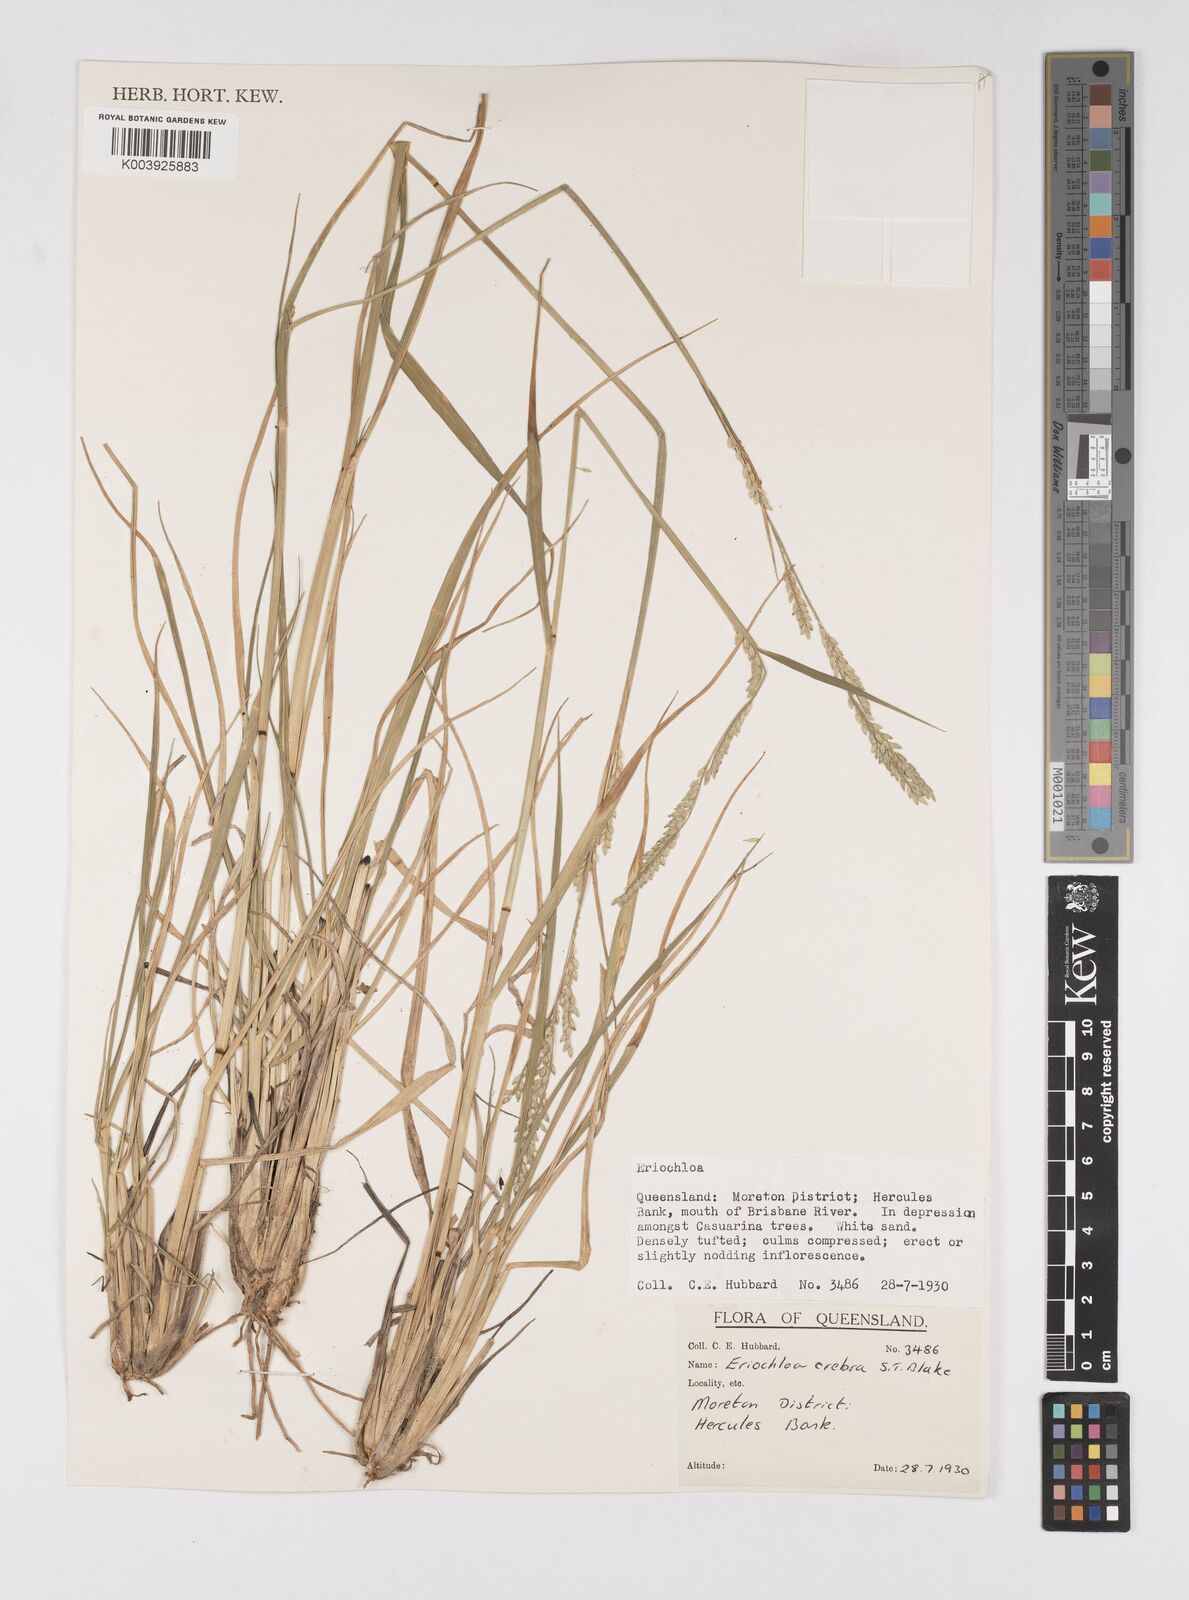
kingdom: Plantae
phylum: Tracheophyta
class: Liliopsida
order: Poales
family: Poaceae
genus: Eriochloa
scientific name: Eriochloa crebra
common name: Cup grass
